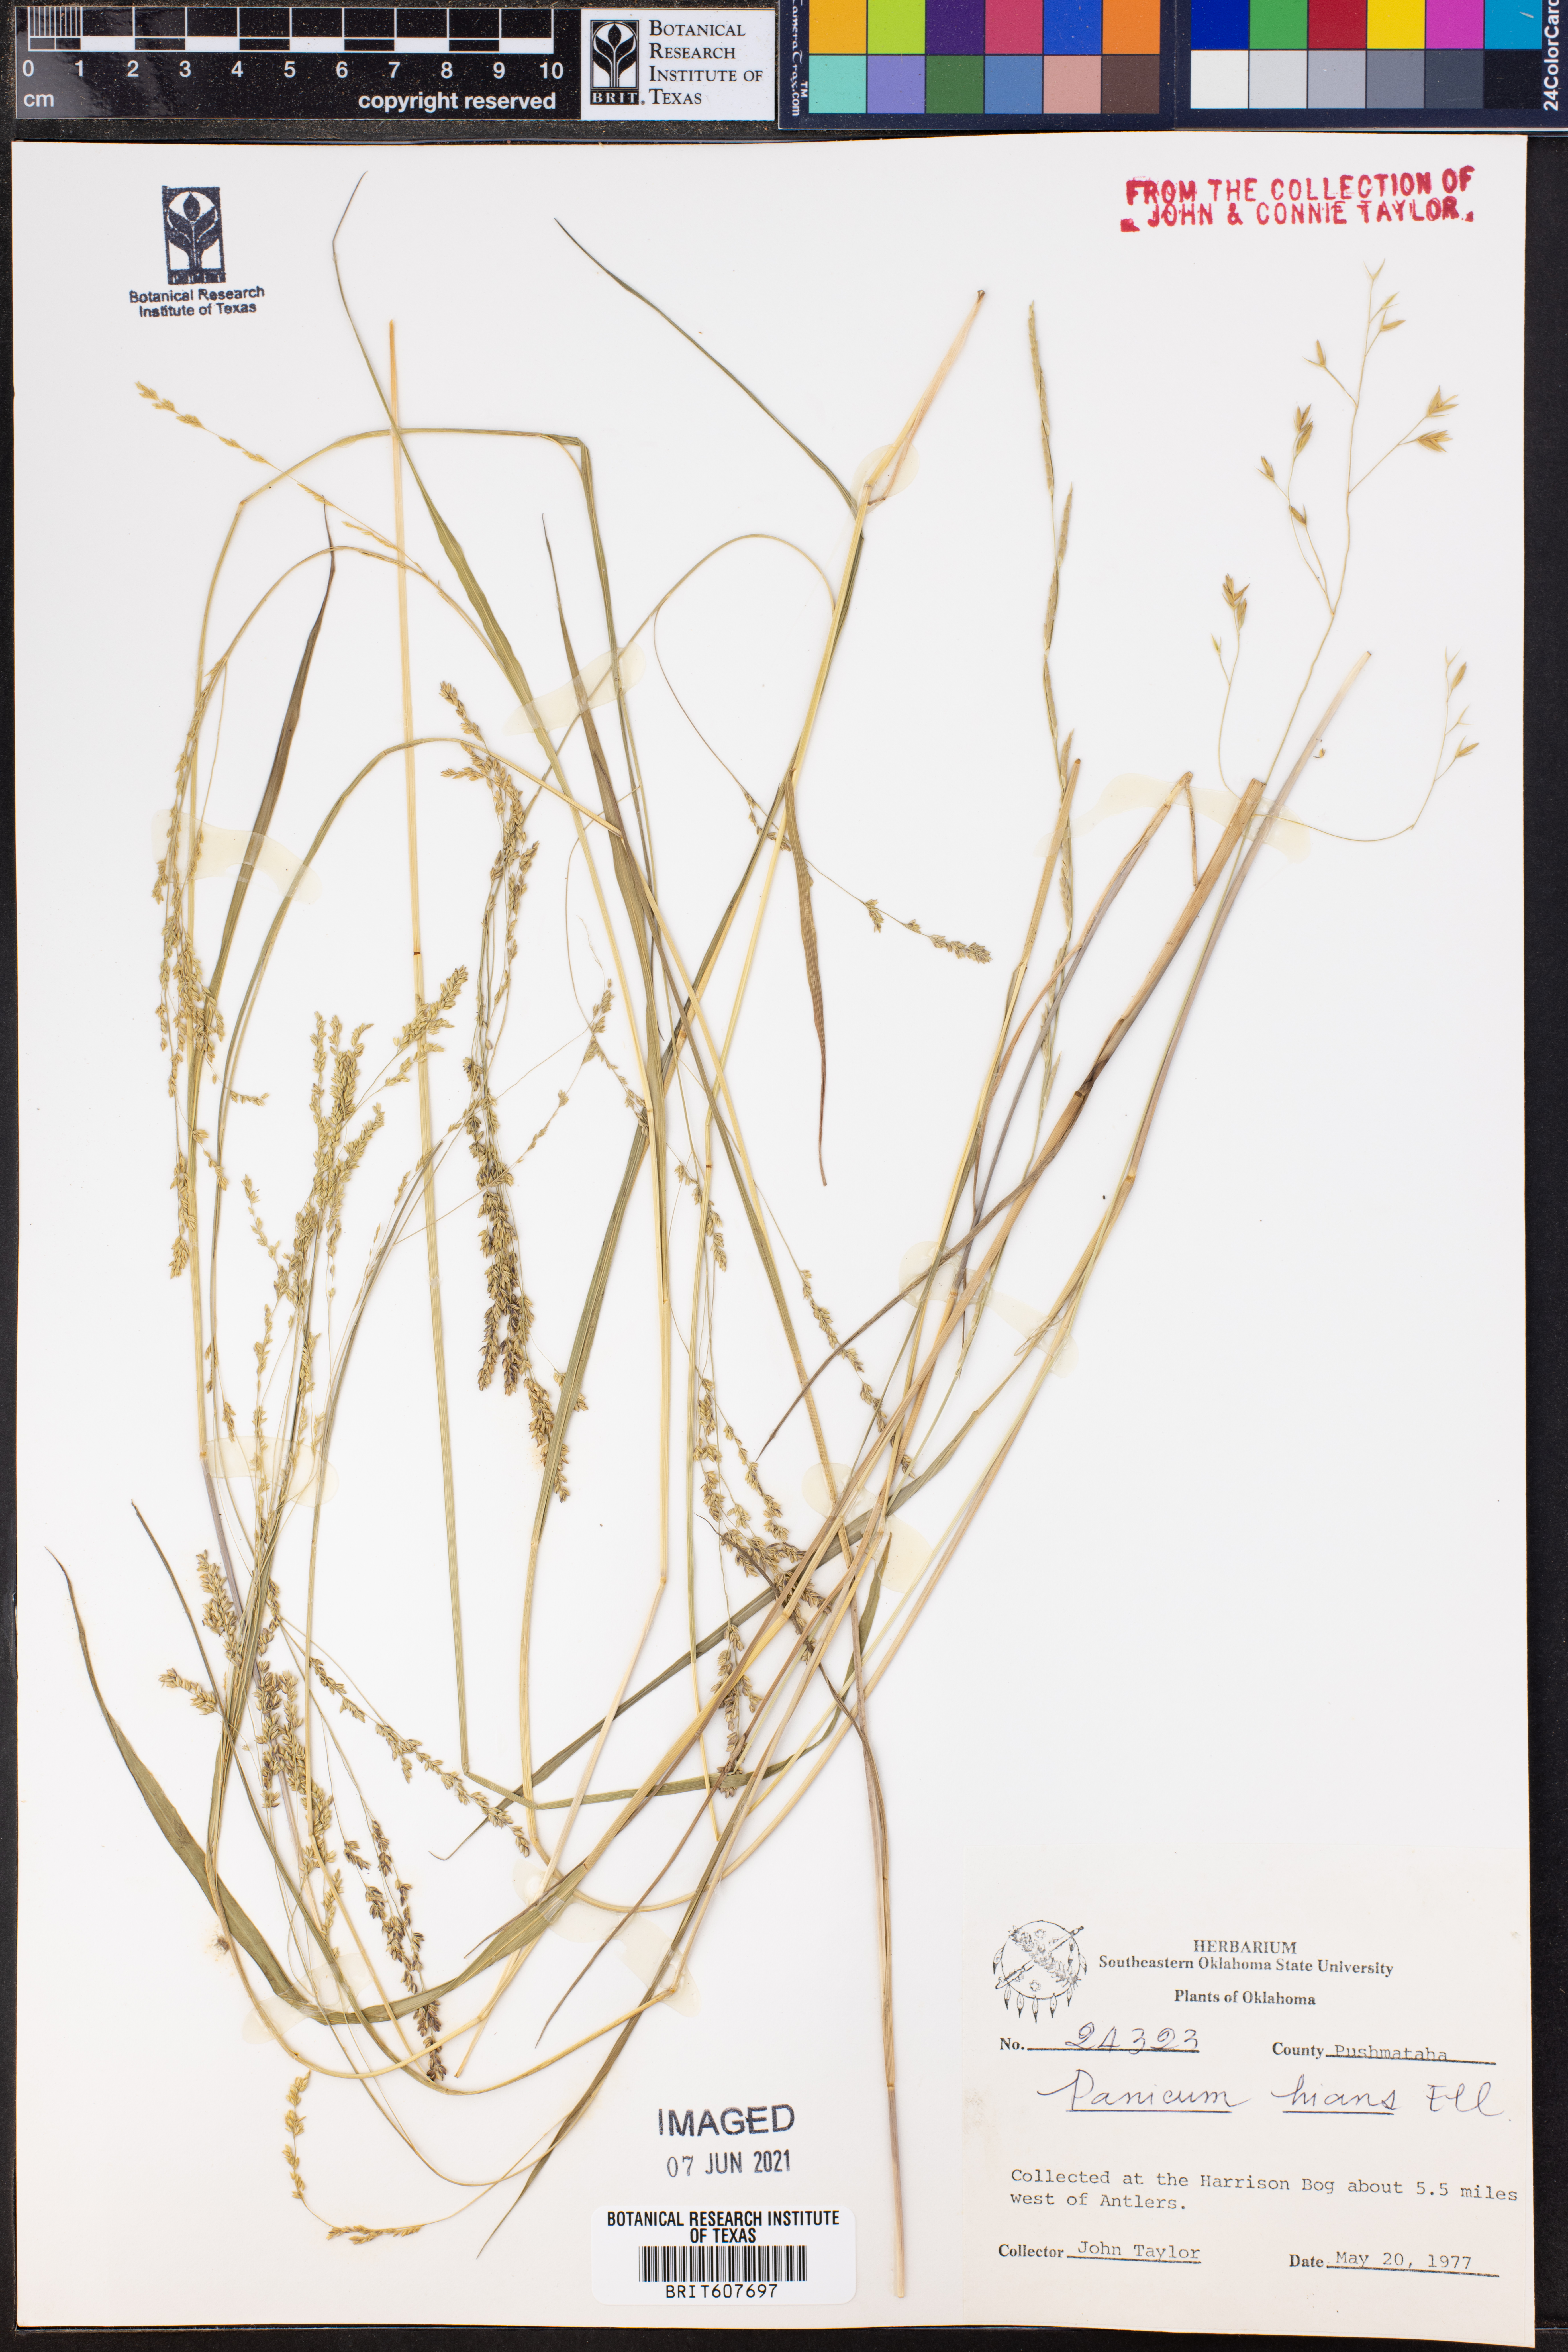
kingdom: Plantae
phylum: Tracheophyta
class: Liliopsida
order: Poales
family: Poaceae
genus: Coleataenia
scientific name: Coleataenia stenodes
